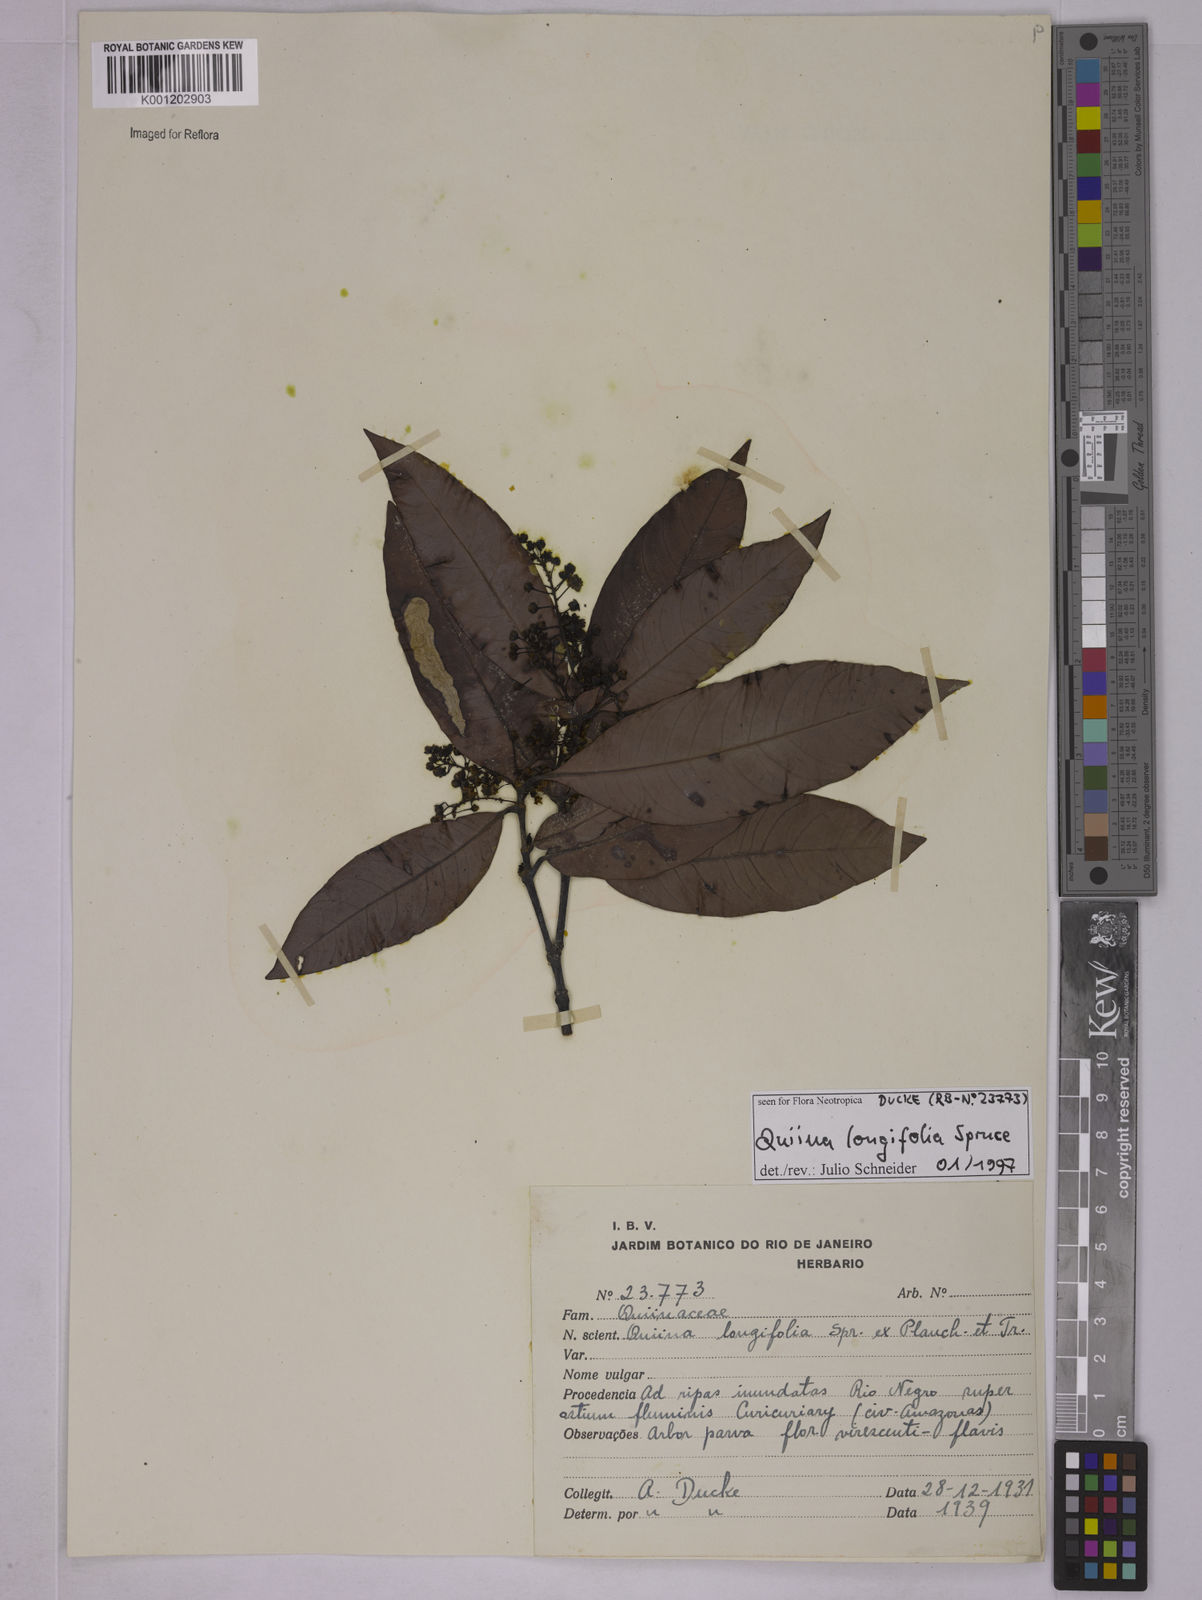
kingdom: Plantae
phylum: Tracheophyta
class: Magnoliopsida
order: Malpighiales
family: Quiinaceae
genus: Quiina
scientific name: Quiina florida
